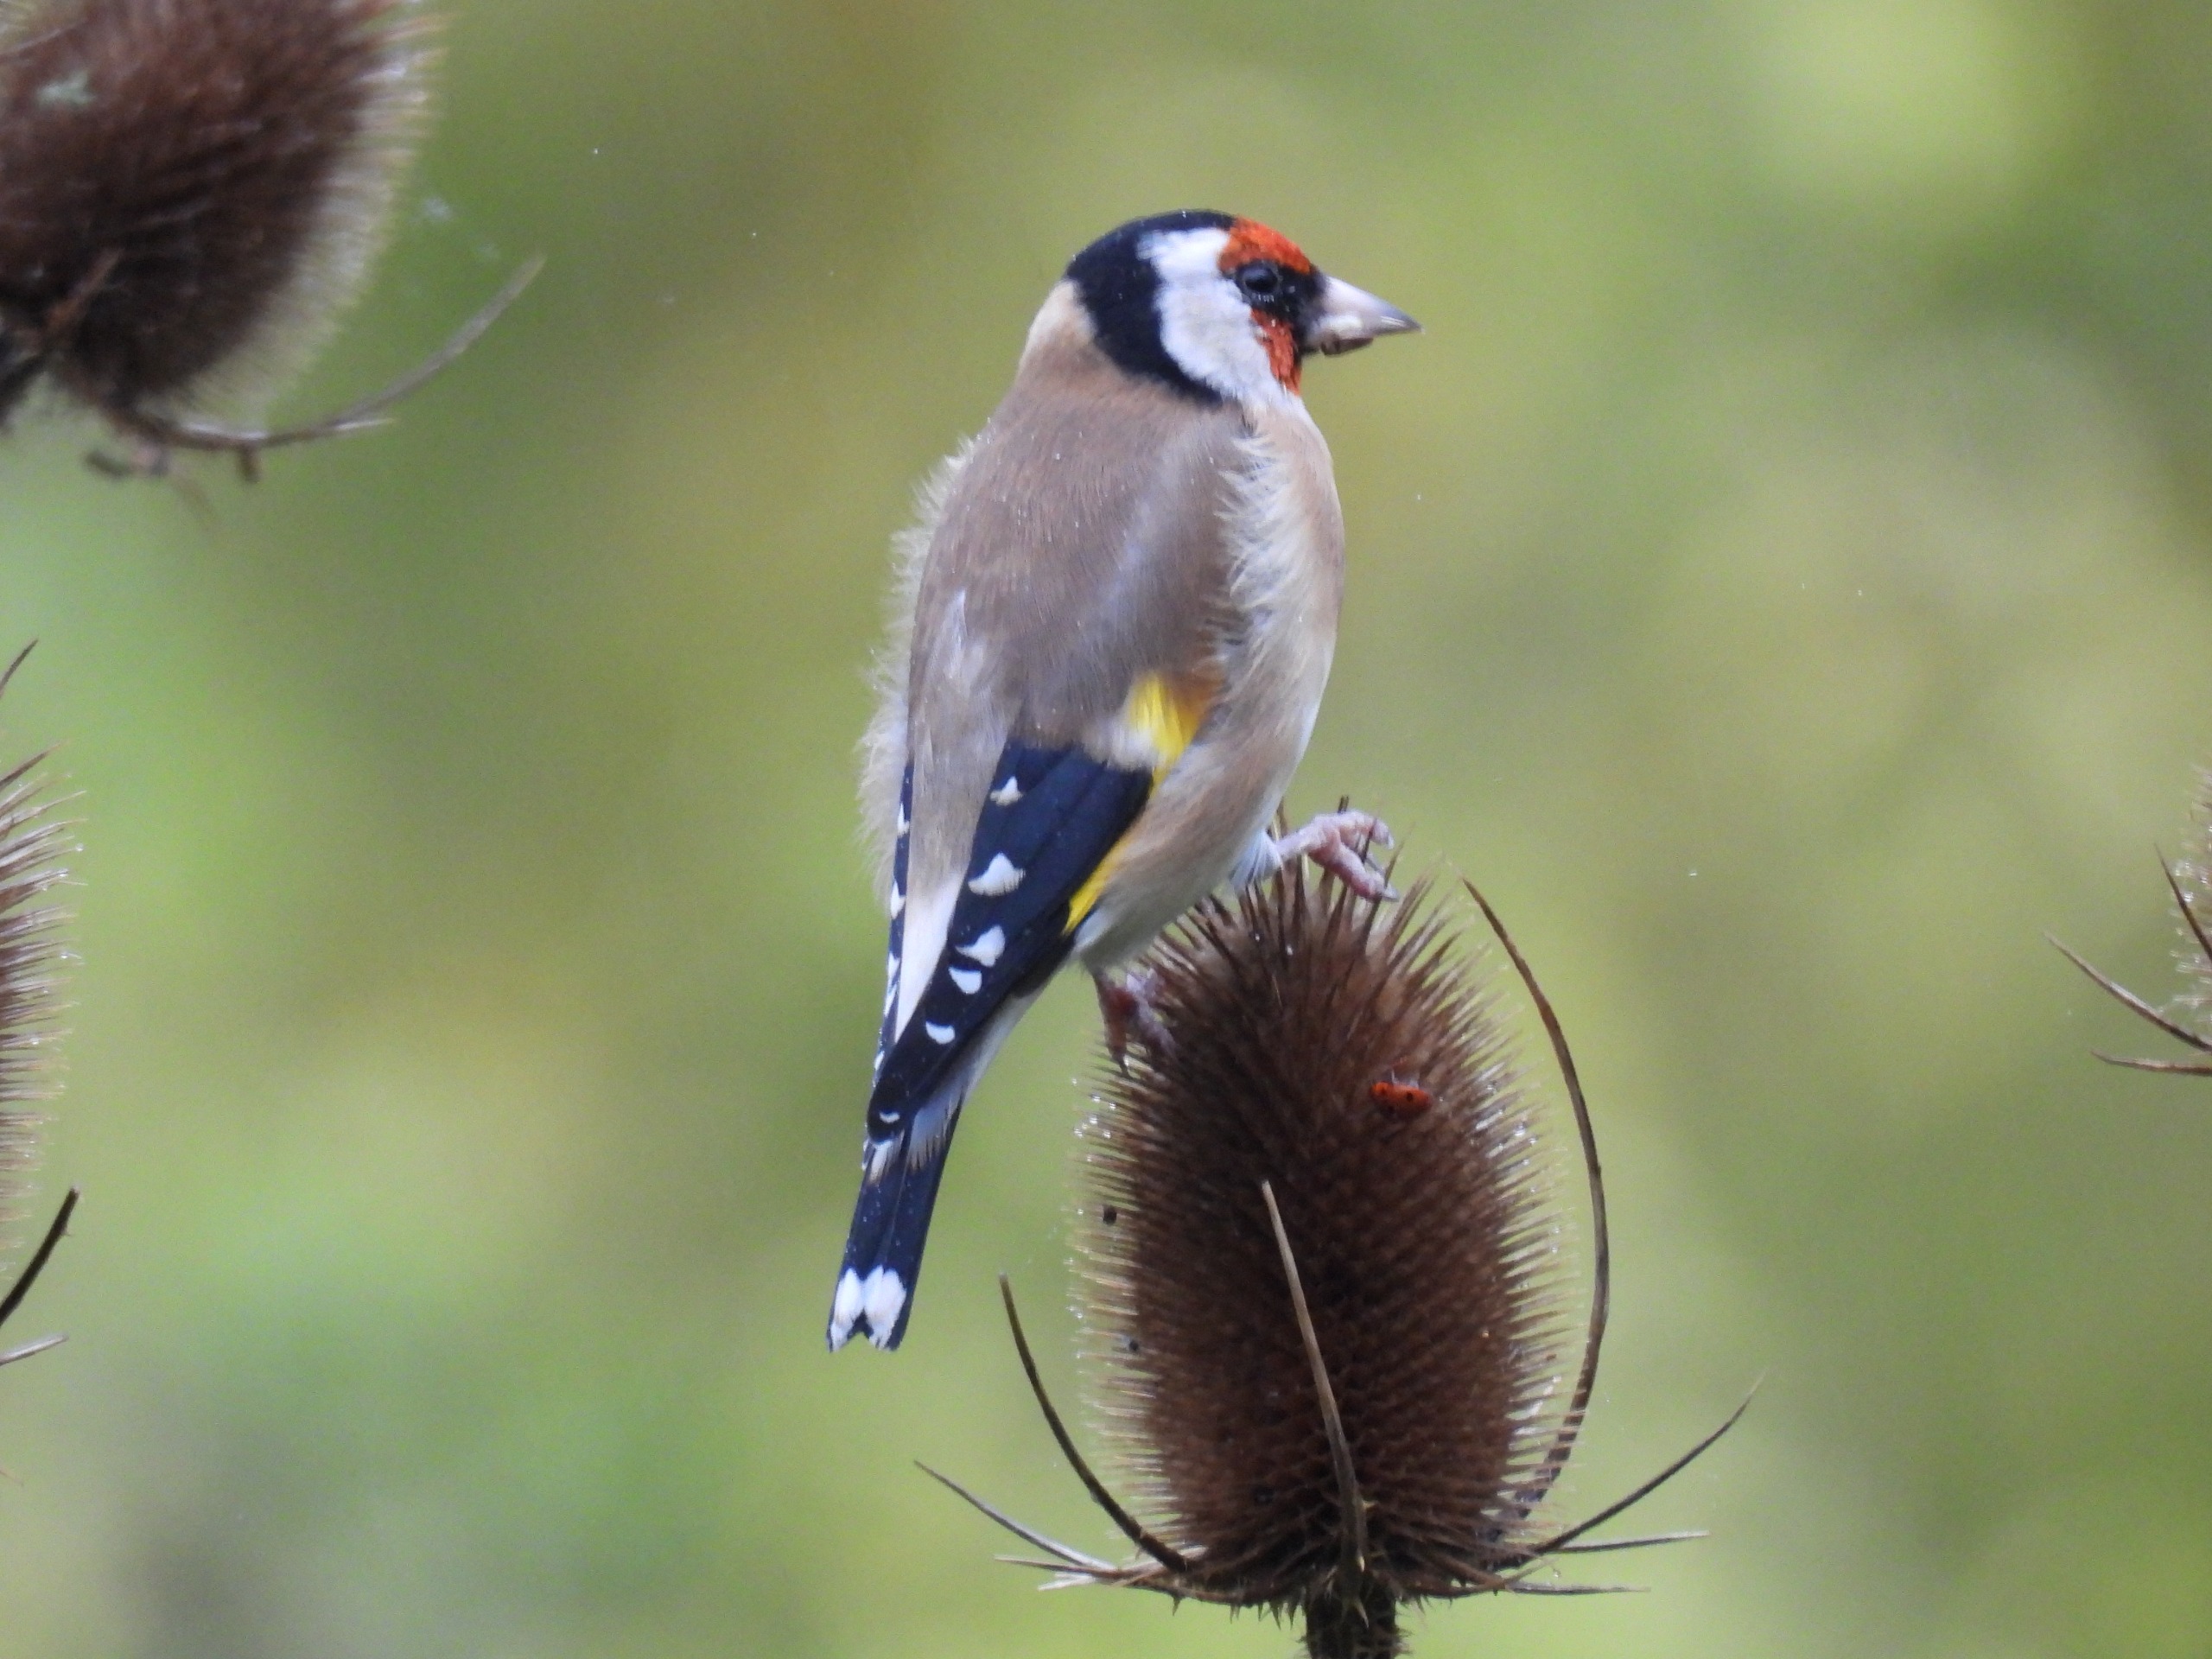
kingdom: Animalia
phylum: Chordata
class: Aves
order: Passeriformes
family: Fringillidae
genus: Carduelis
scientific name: Carduelis carduelis
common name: Stillits
